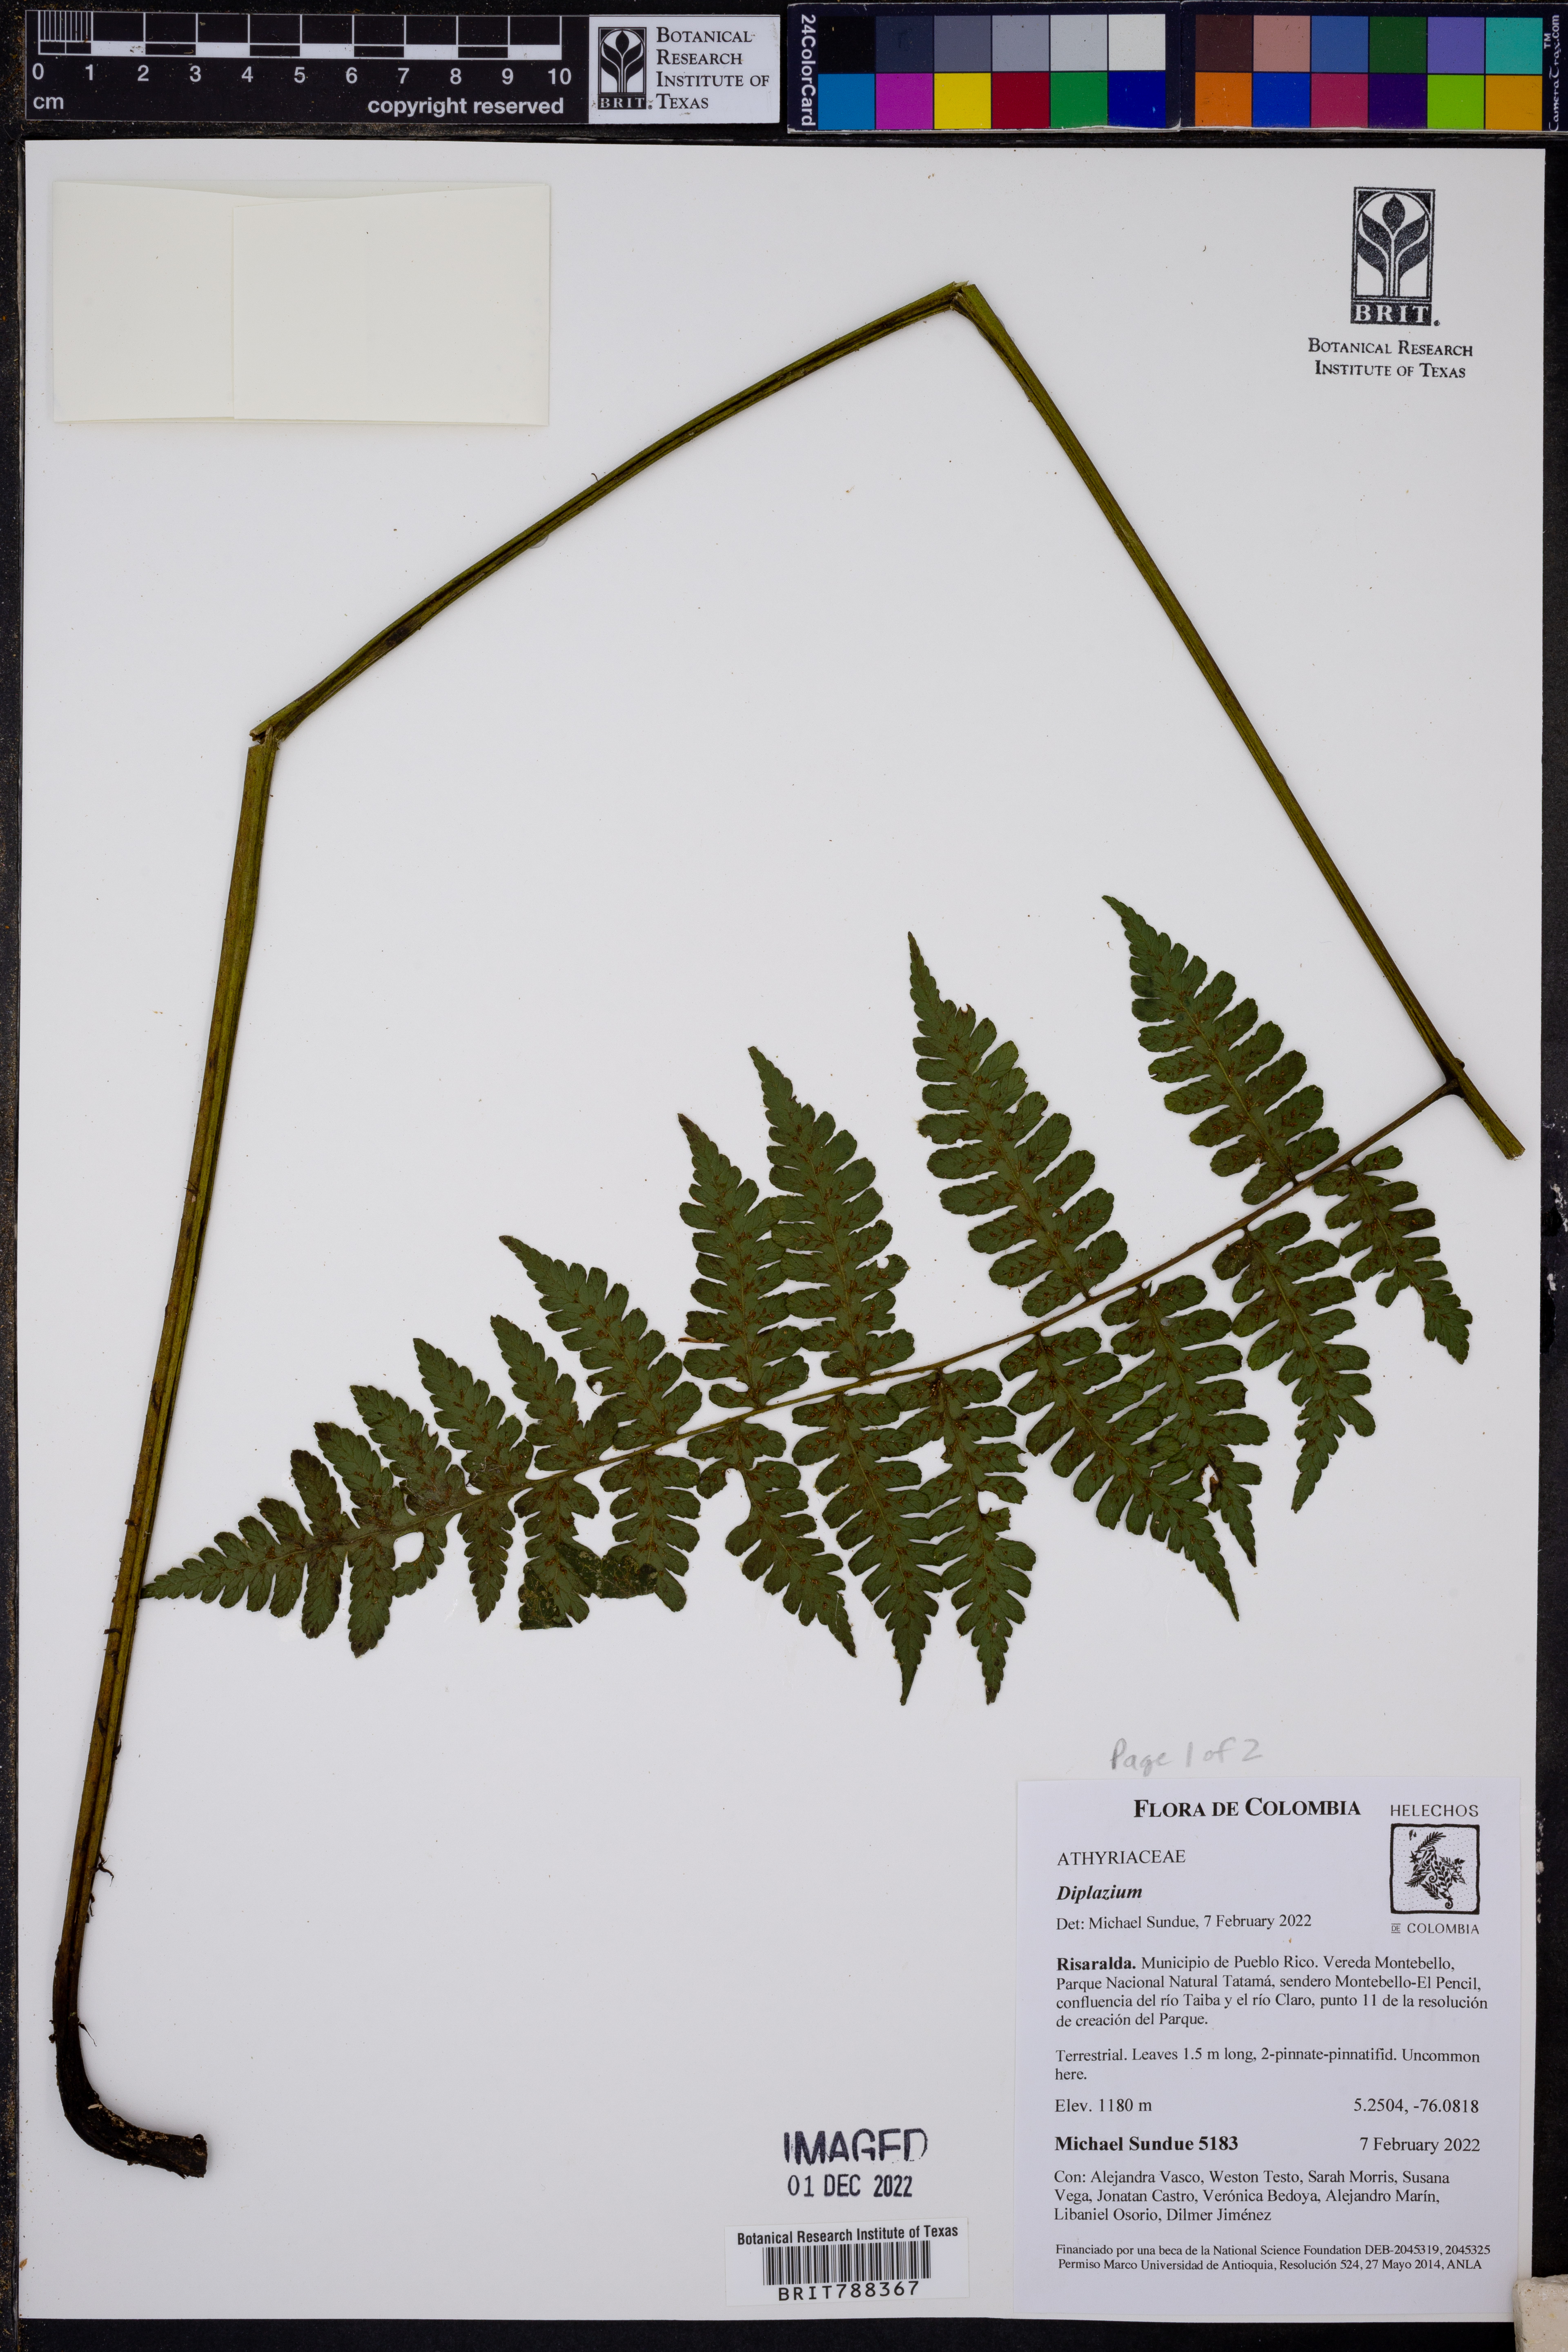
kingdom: Plantae
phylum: Tracheophyta
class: Polypodiopsida
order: Polypodiales
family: Athyriaceae
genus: Diplazium
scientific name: Diplazium diplazioides
